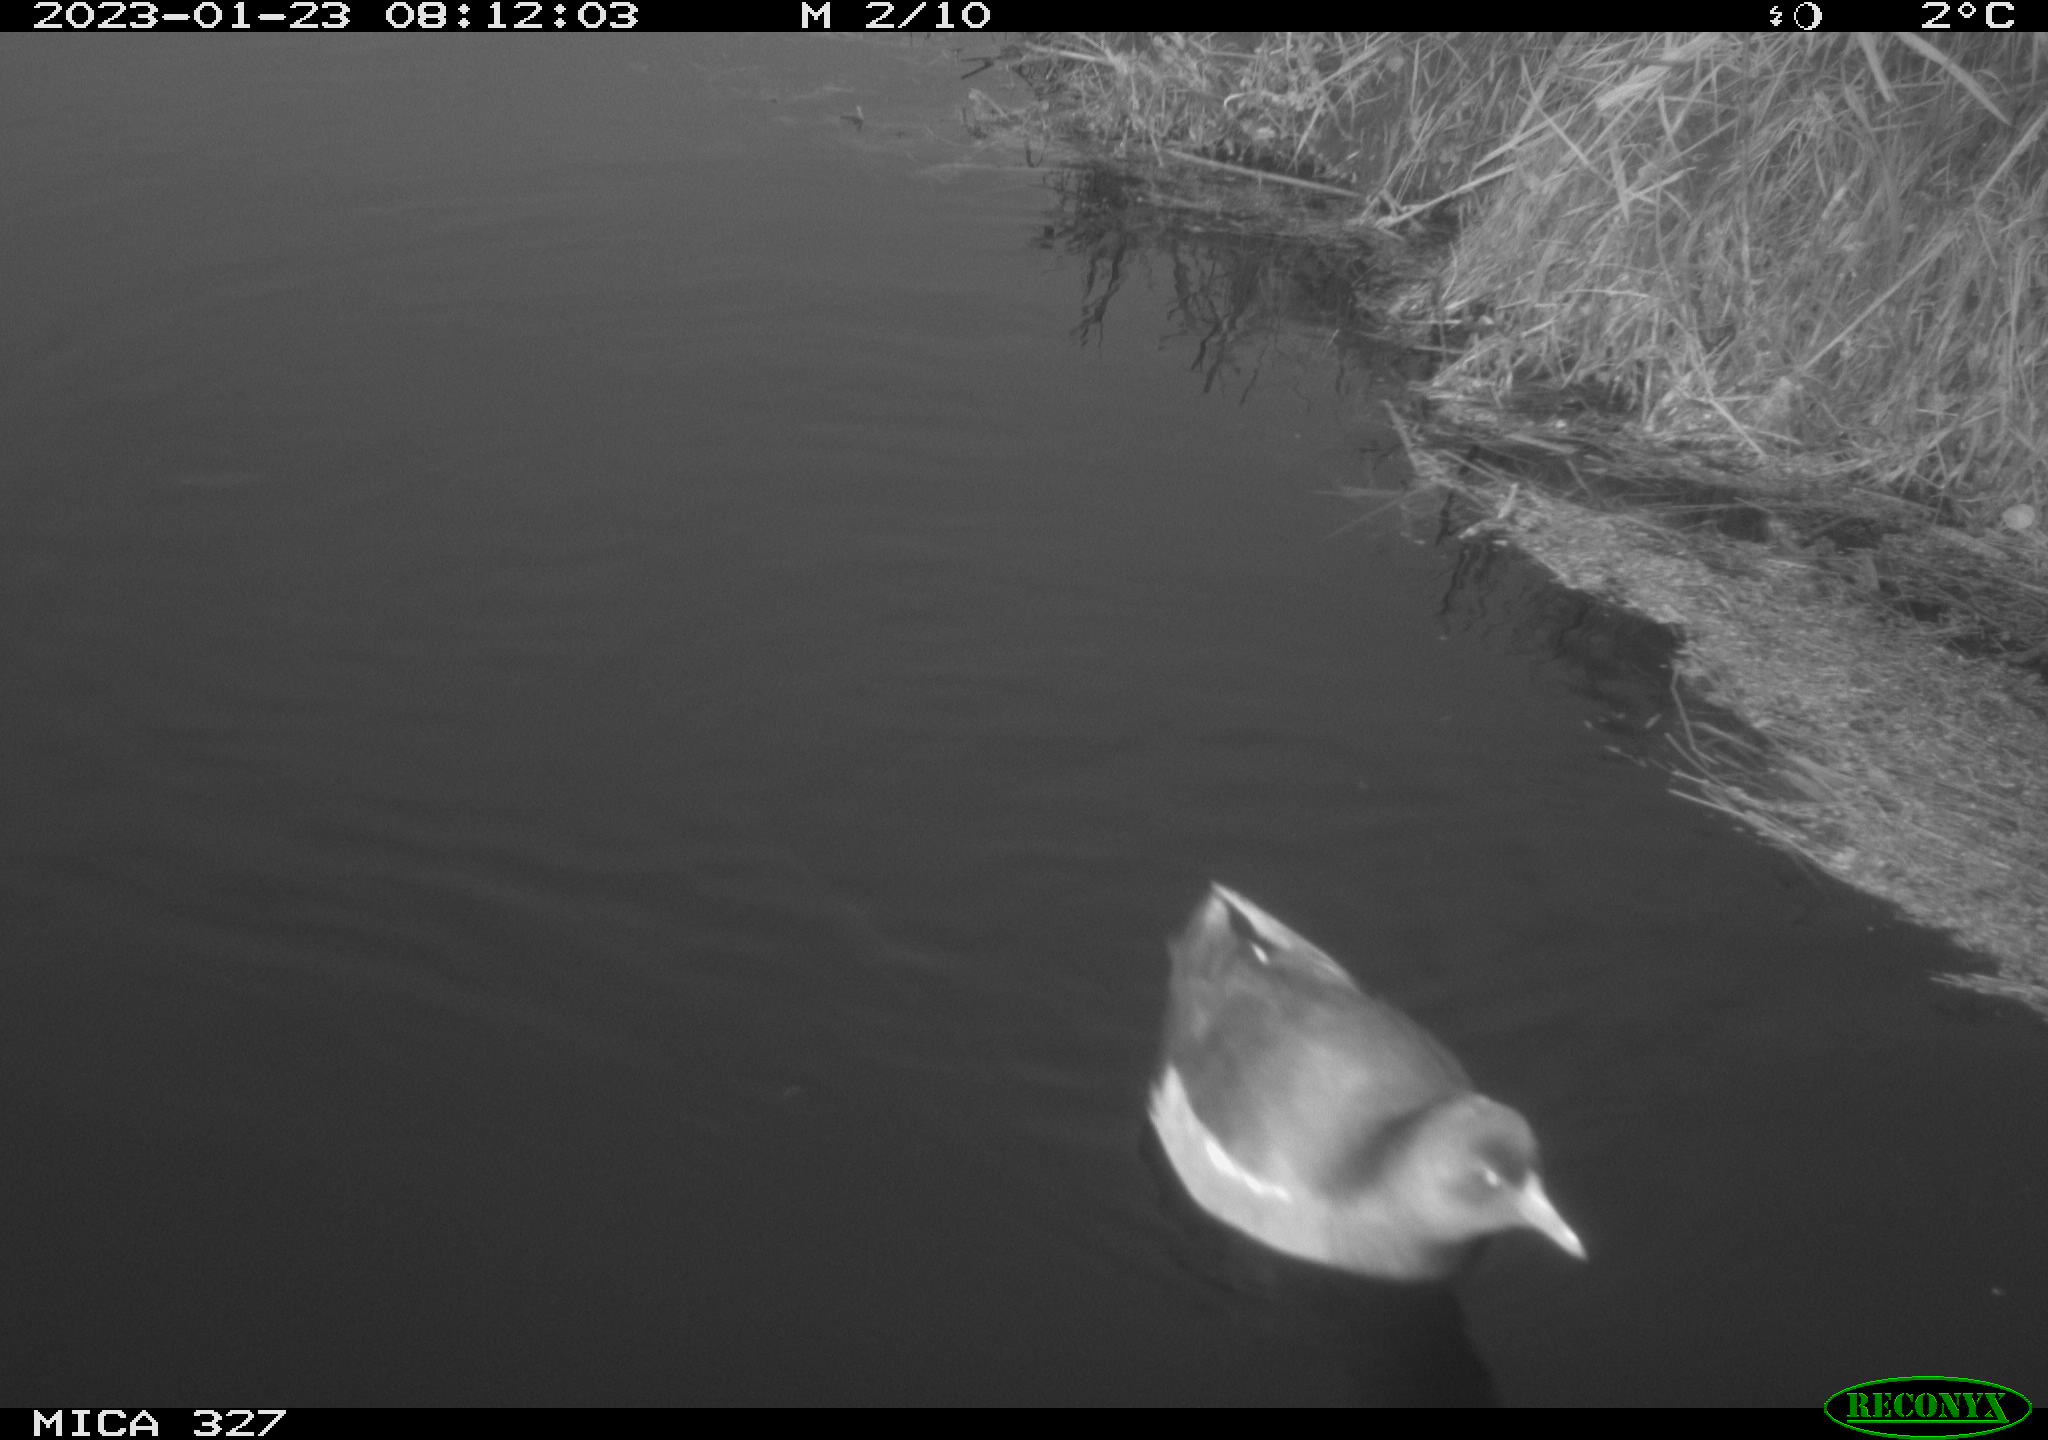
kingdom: Animalia
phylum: Chordata
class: Aves
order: Gruiformes
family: Rallidae
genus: Gallinula
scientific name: Gallinula chloropus
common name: Common moorhen
